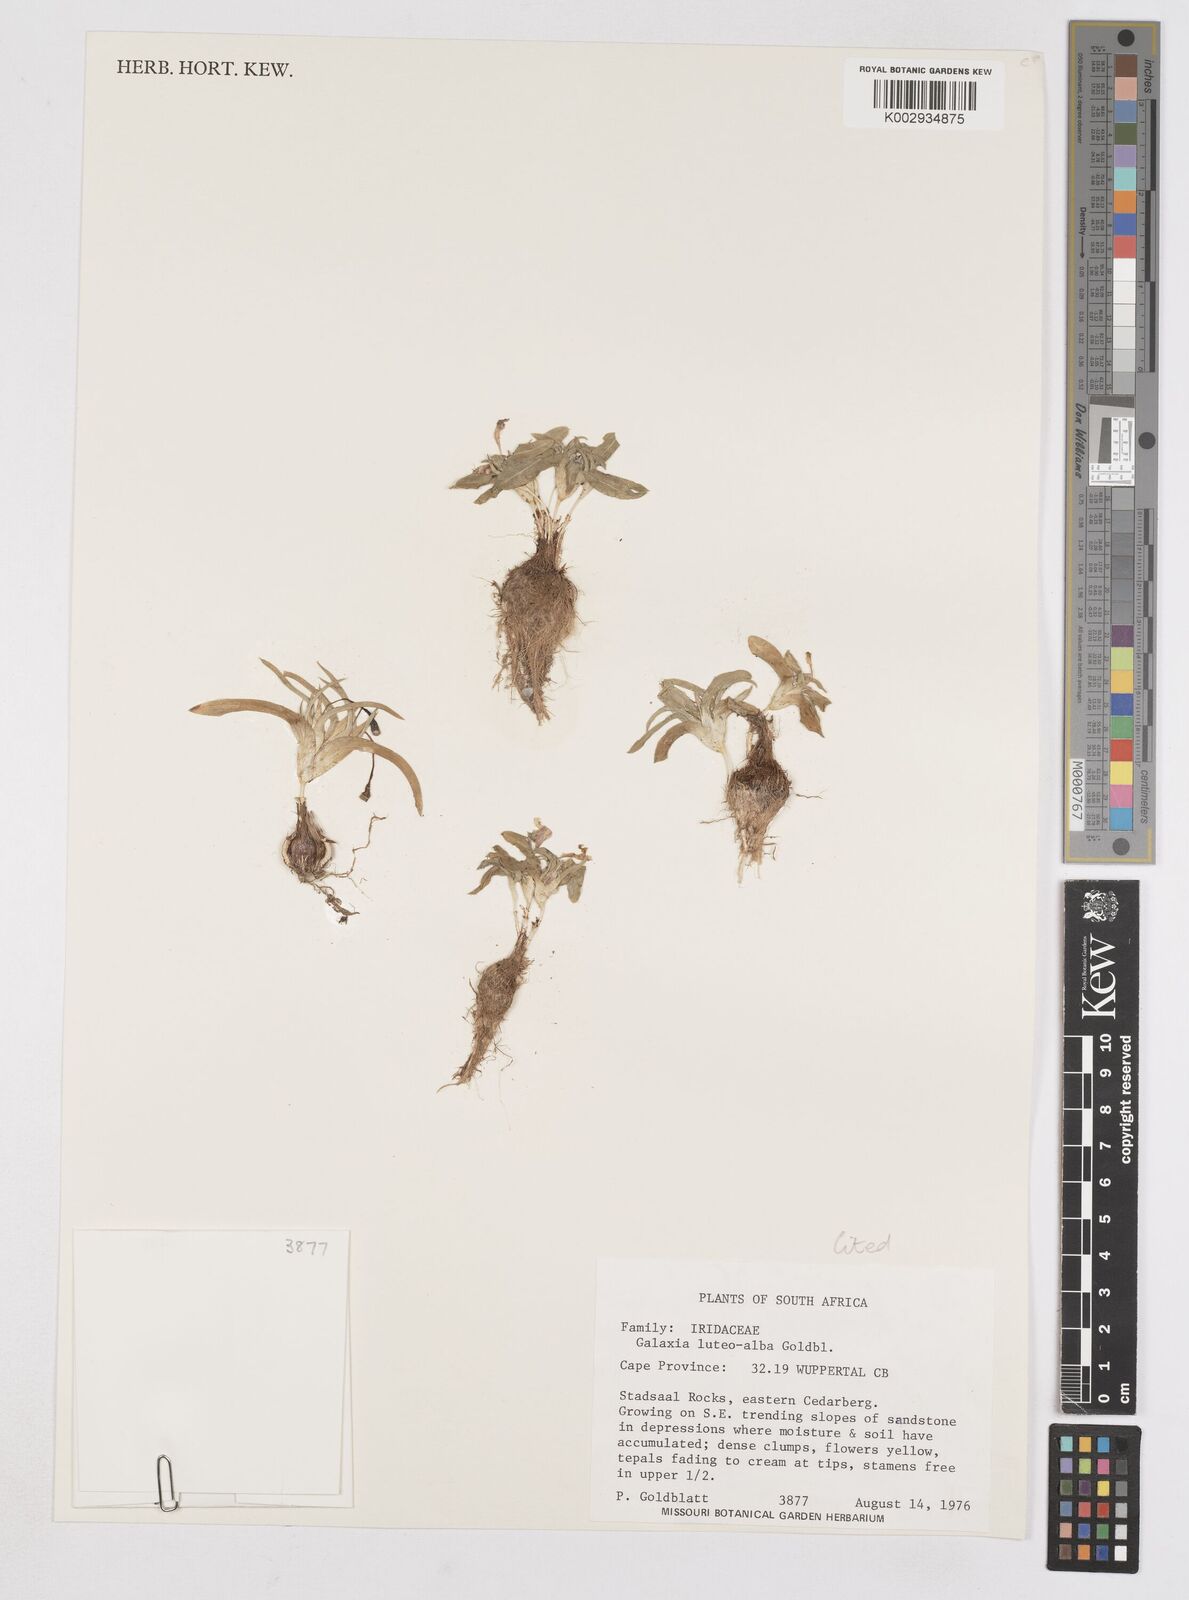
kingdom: Plantae
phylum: Tracheophyta
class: Liliopsida
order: Asparagales
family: Iridaceae
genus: Moraea
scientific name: Moraea luteoalba
